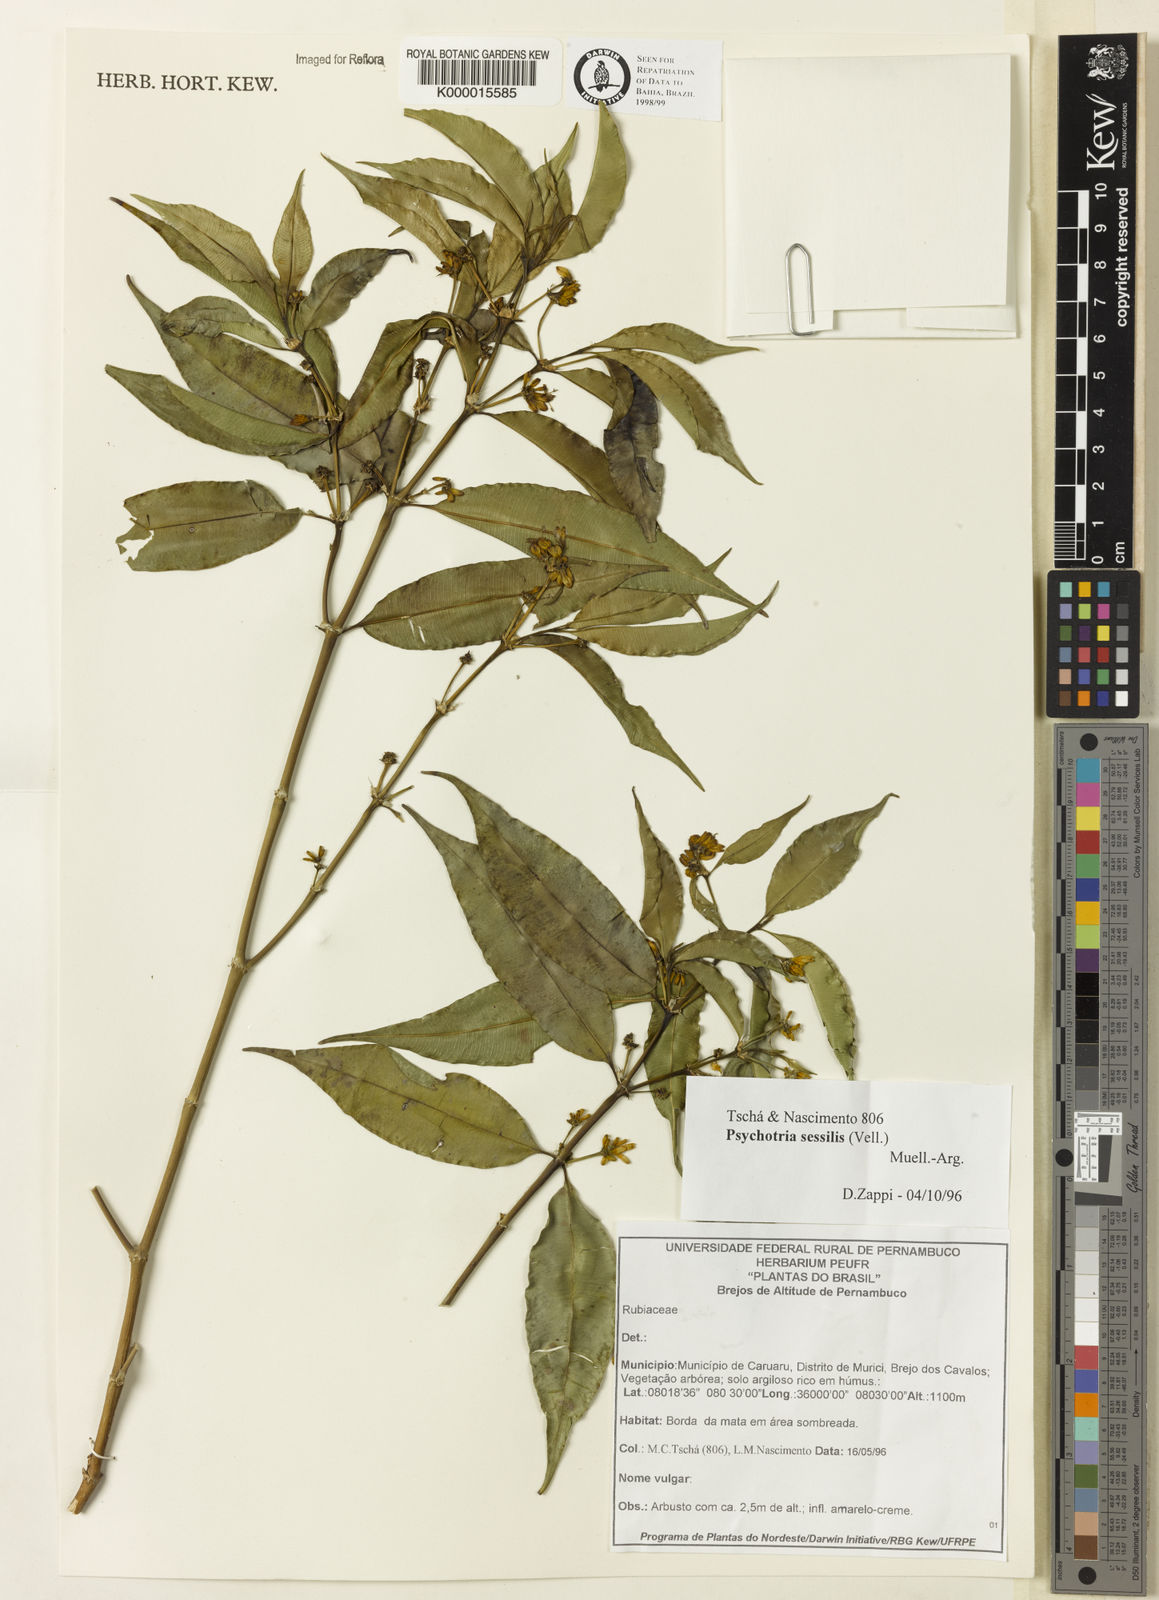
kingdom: Plantae
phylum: Tracheophyta
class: Magnoliopsida
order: Gentianales
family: Rubiaceae
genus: Psychotria
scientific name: Psychotria
